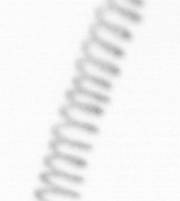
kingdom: Chromista
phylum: Ochrophyta
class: Bacillariophyceae
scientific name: Bacillariophyceae
